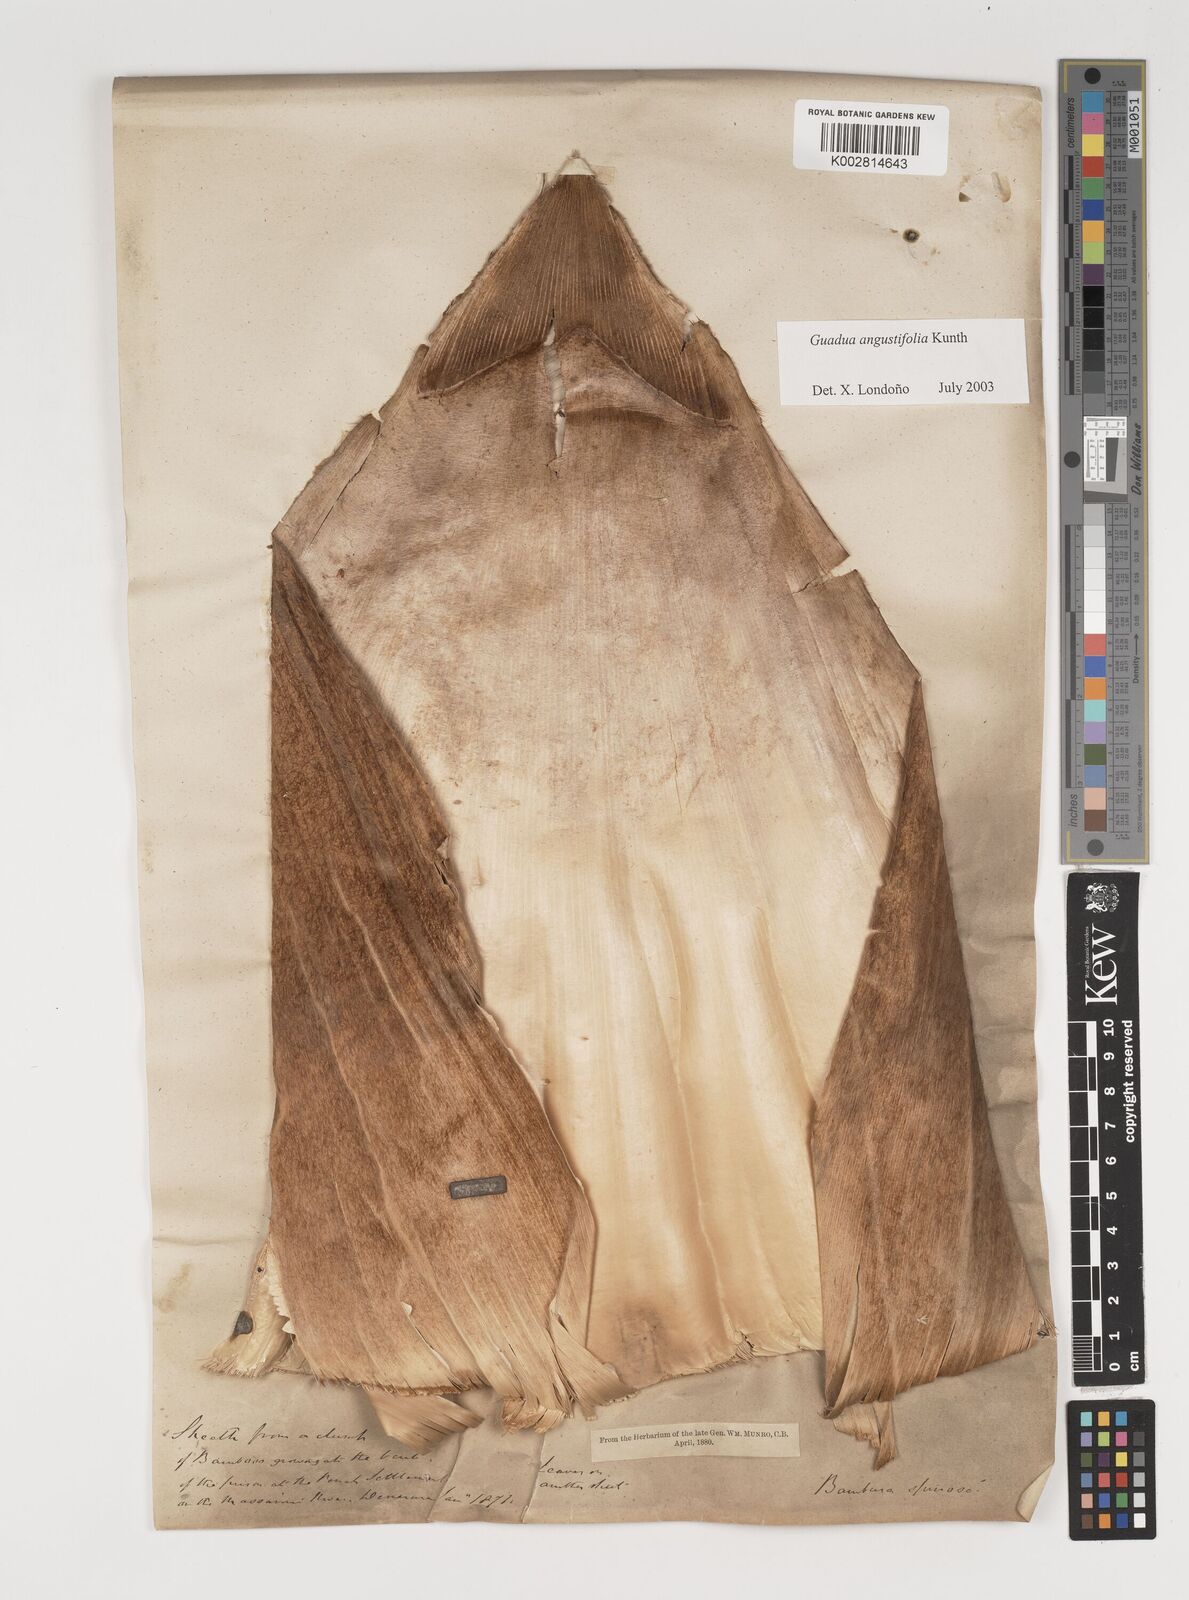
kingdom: Plantae
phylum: Tracheophyta
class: Liliopsida
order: Poales
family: Poaceae
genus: Guadua
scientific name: Guadua angustifolia
